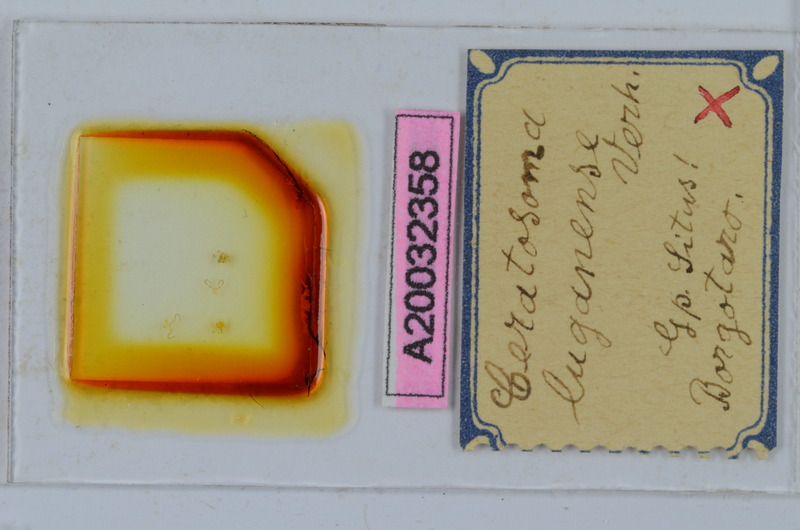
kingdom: Animalia
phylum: Arthropoda
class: Diplopoda
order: Chordeumatida
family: Craspedosomatidae
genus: Bomogona
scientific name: Bomogona lombardica
